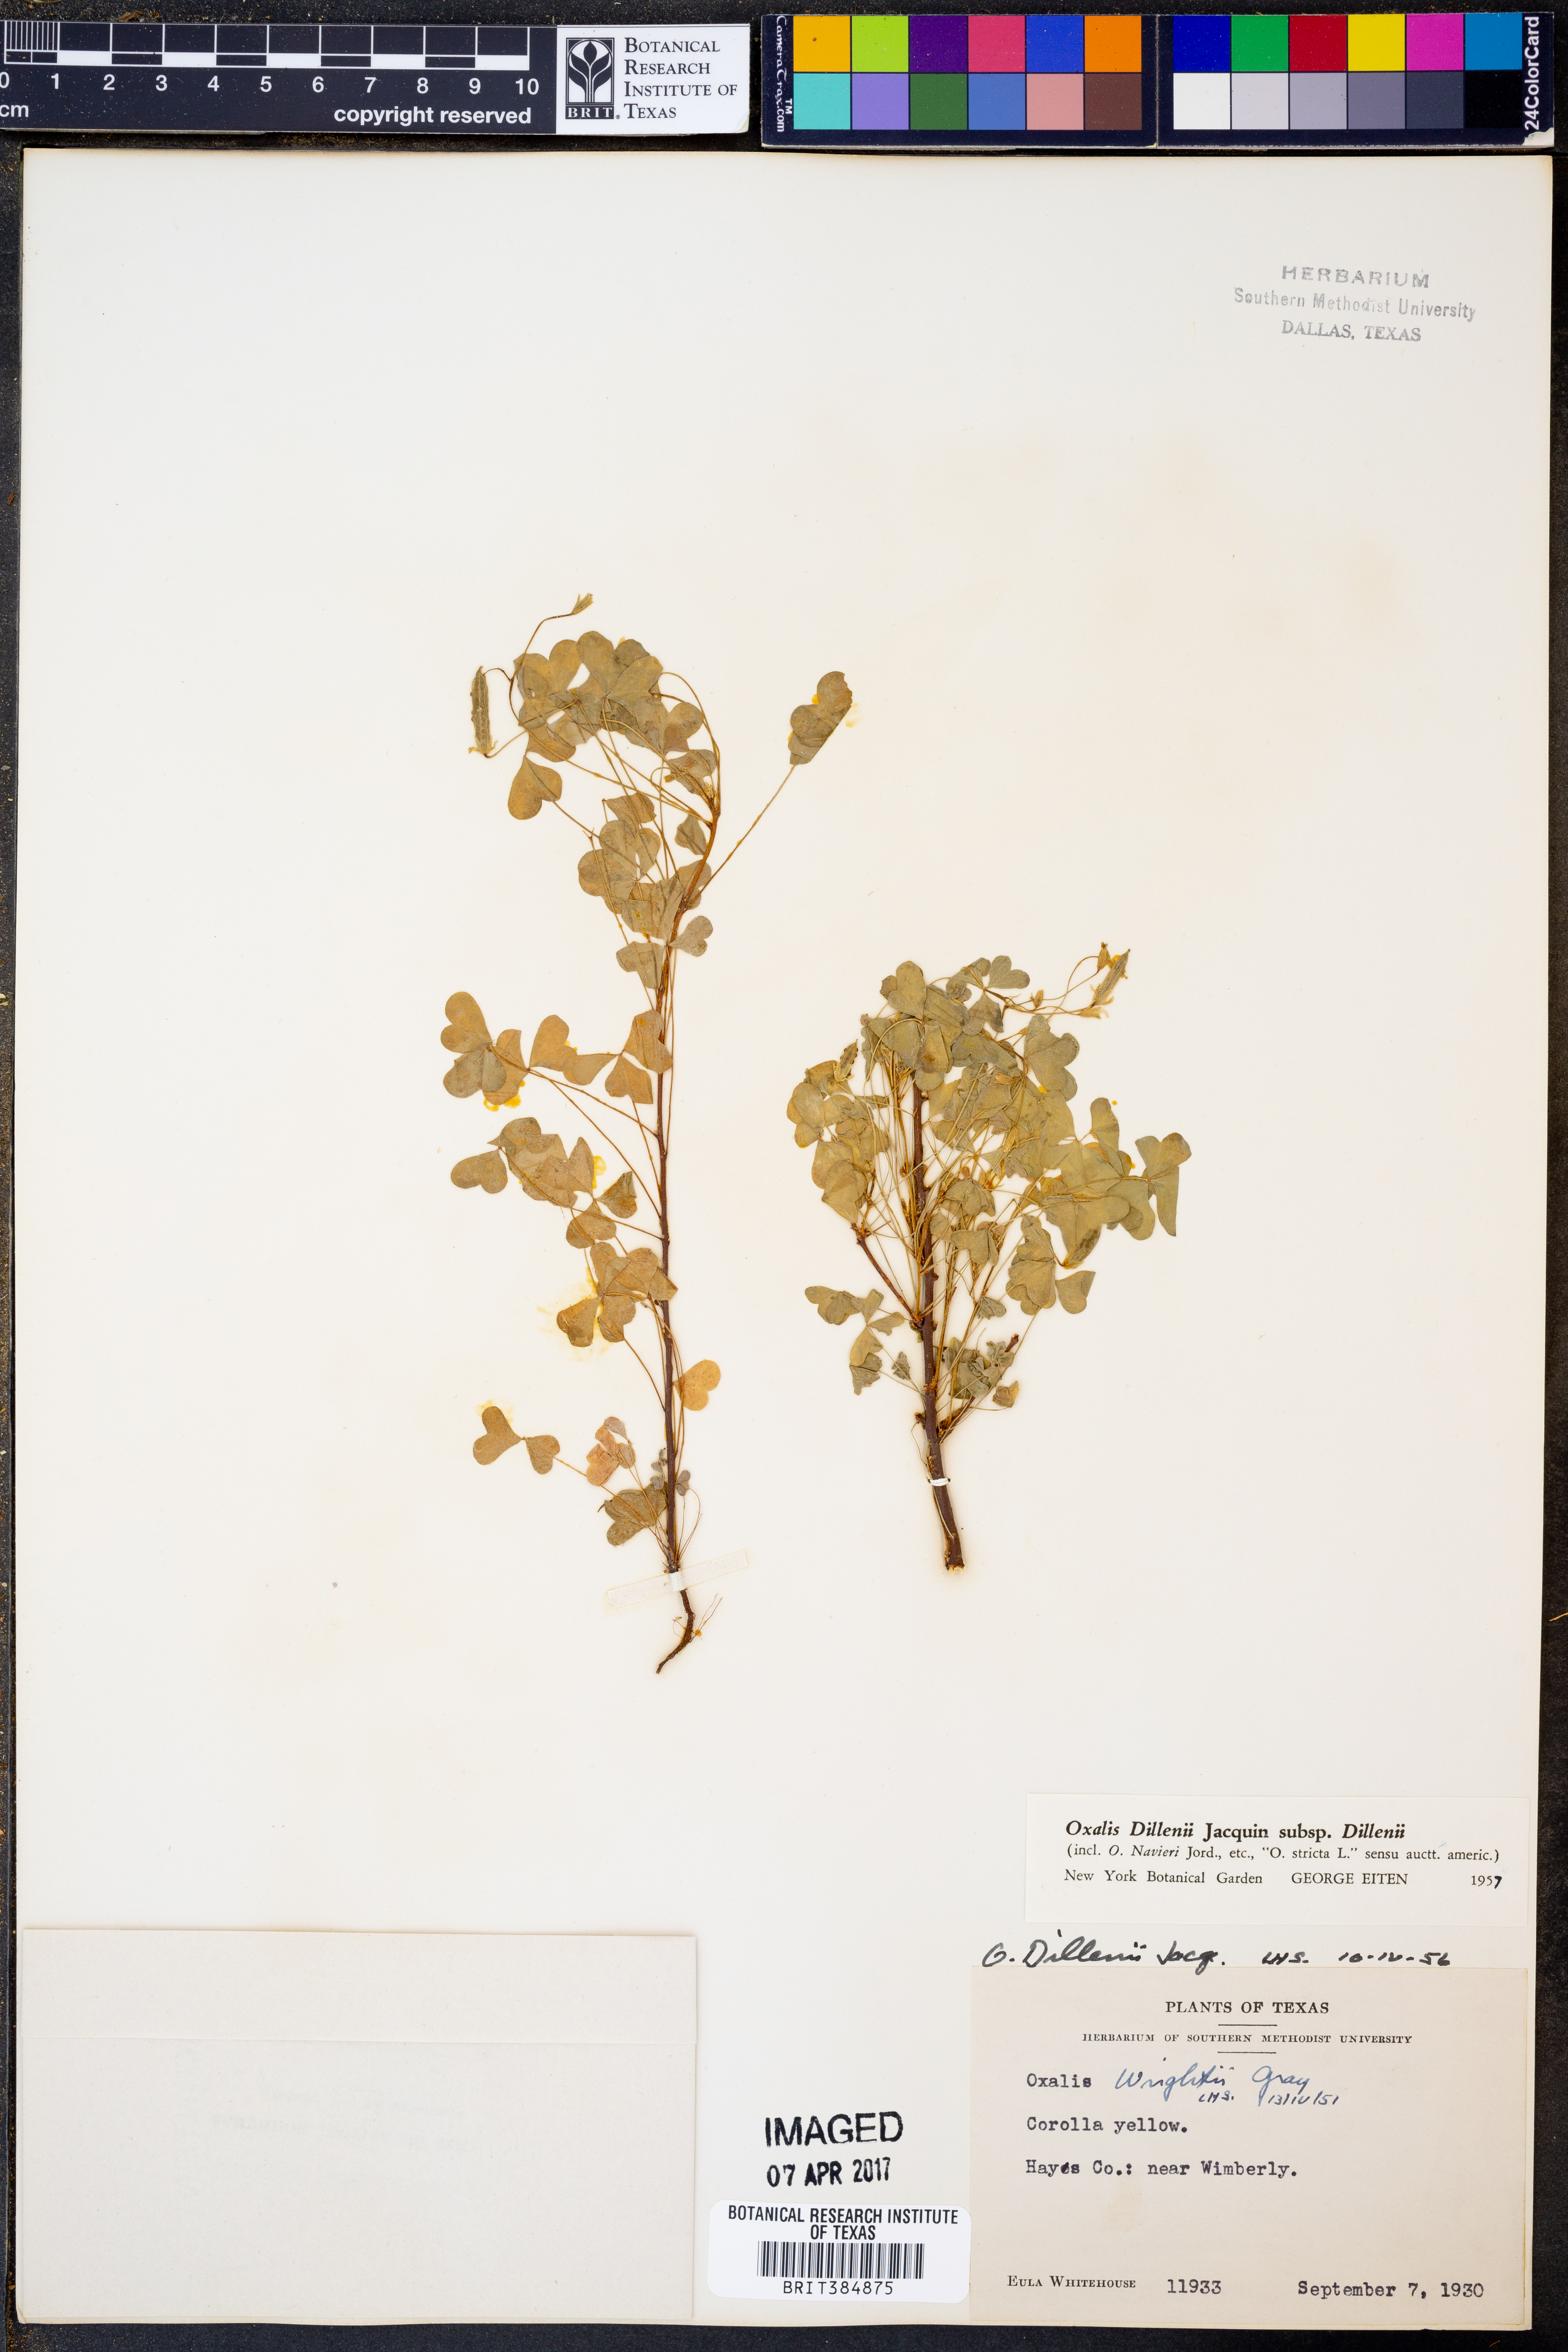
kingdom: Plantae
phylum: Tracheophyta
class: Magnoliopsida
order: Oxalidales
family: Oxalidaceae
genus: Oxalis
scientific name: Oxalis dillenii
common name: Sussex yellow-sorrel
